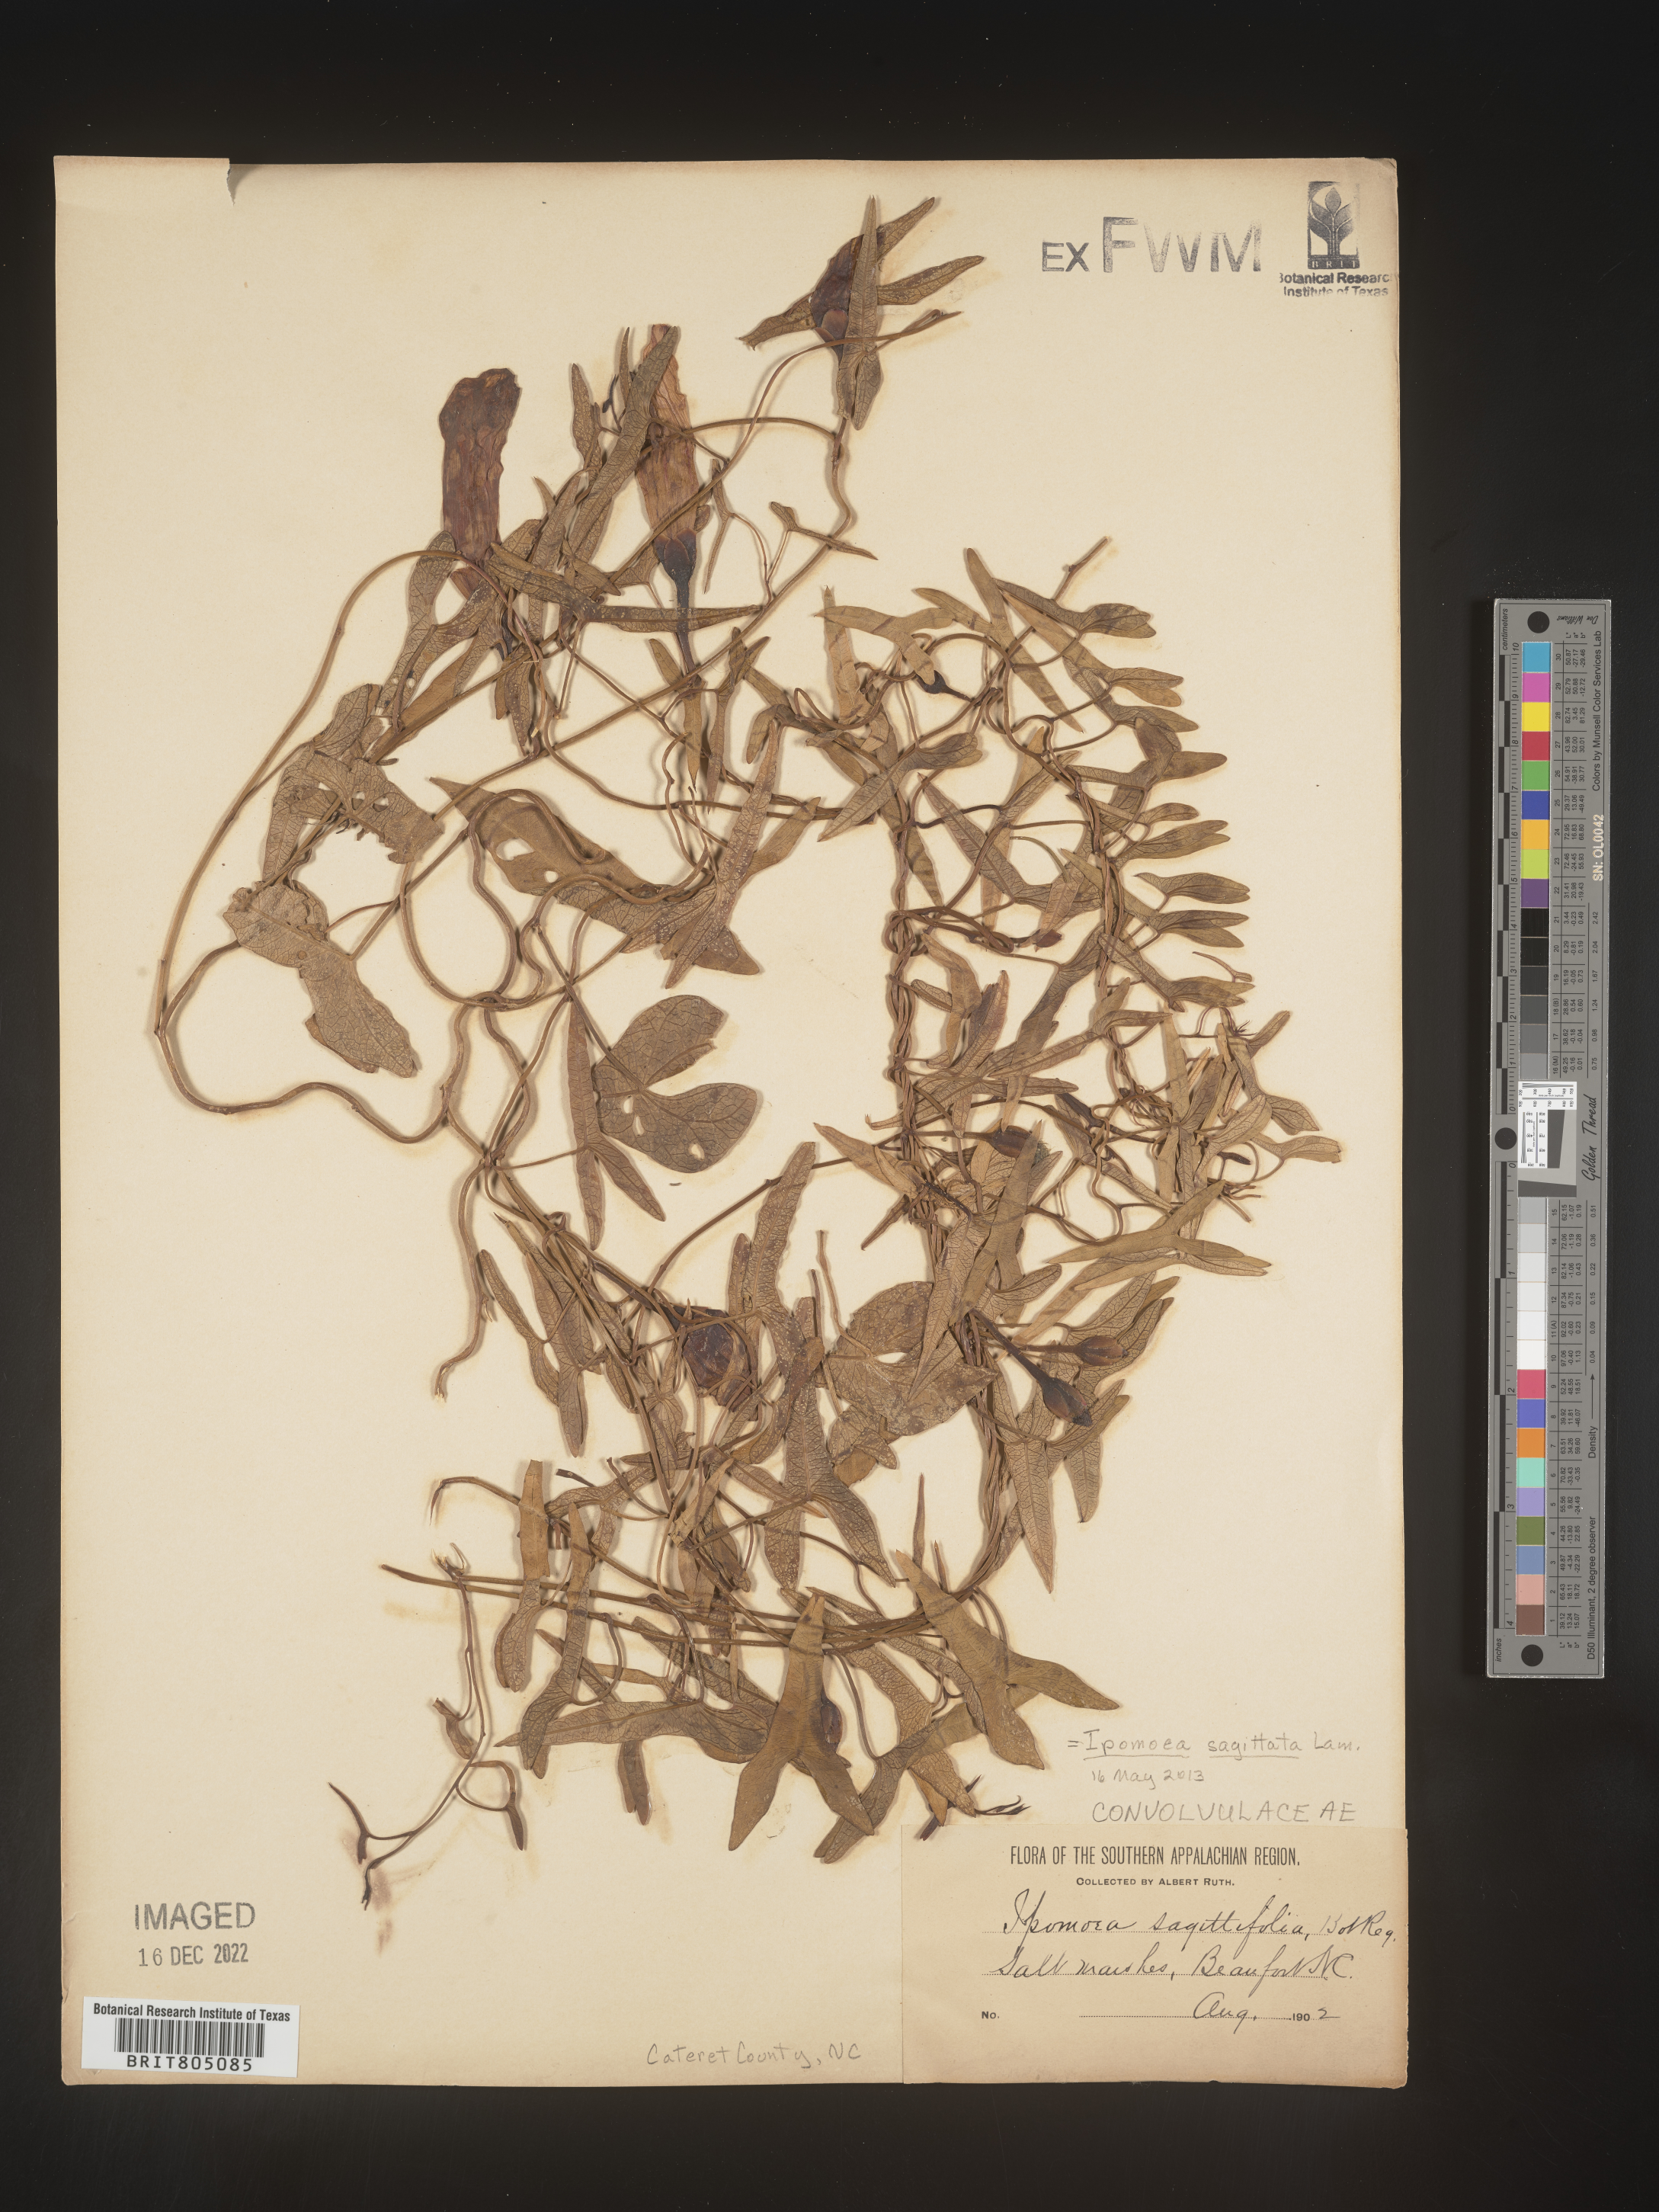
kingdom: Plantae
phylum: Tracheophyta
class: Magnoliopsida
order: Solanales
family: Convolvulaceae
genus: Ipomoea
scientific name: Ipomoea sinensis
